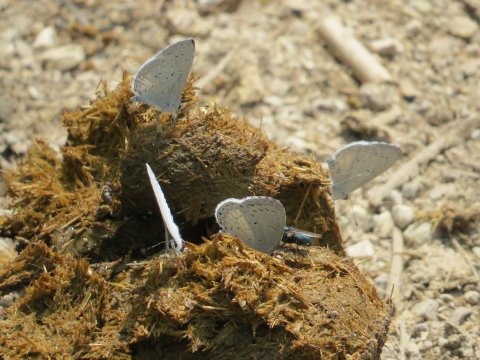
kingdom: Animalia
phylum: Arthropoda
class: Insecta
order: Lepidoptera
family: Lycaenidae
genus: Cyaniris
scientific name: Cyaniris neglecta
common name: Summer Azure
